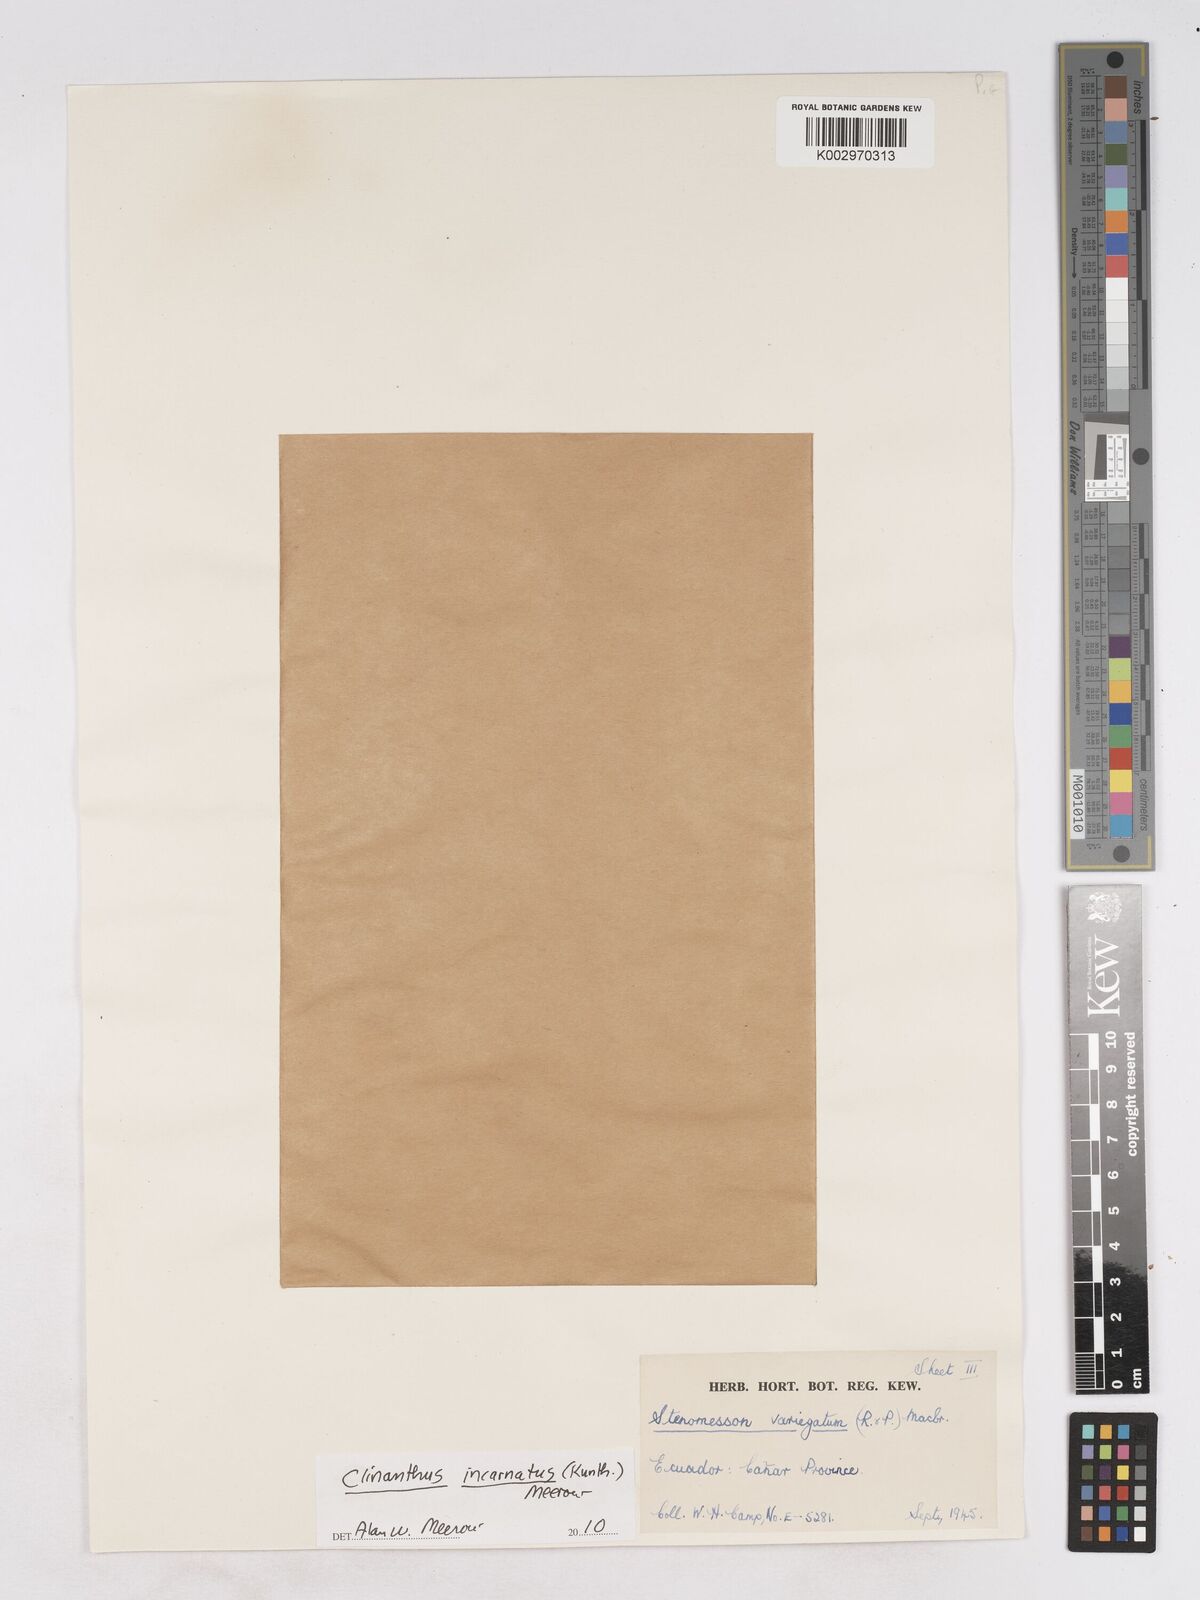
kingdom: Plantae
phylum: Tracheophyta
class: Liliopsida
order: Asparagales
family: Amaryllidaceae
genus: Clinanthus
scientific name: Clinanthus incarnatus
